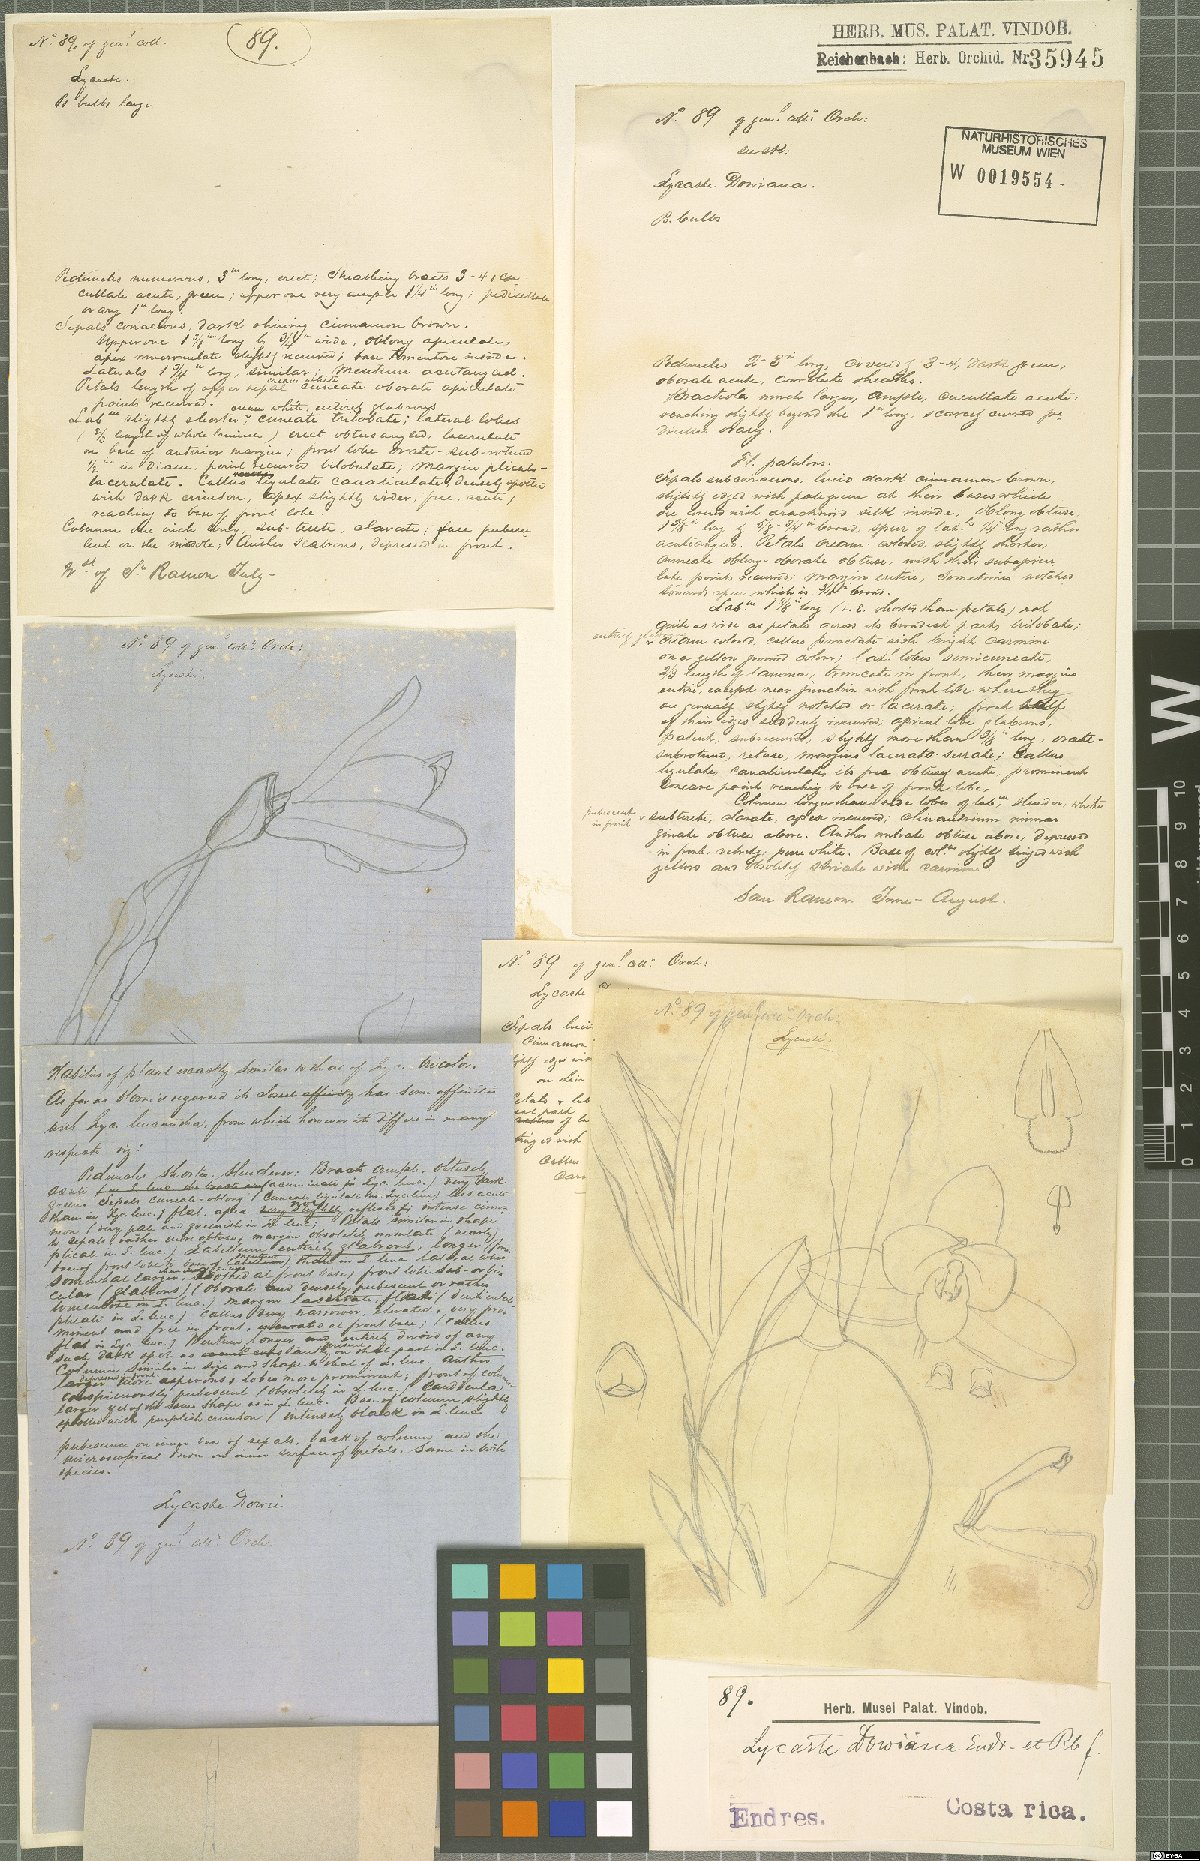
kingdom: Plantae
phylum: Tracheophyta
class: Liliopsida
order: Asparagales
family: Orchidaceae
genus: Lycaste
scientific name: Lycaste dowiana
